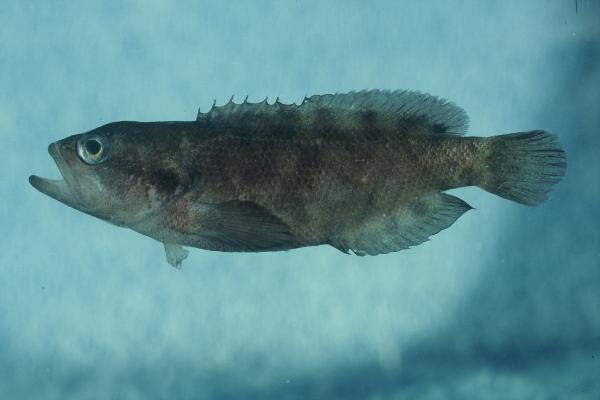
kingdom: Animalia
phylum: Chordata
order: Perciformes
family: Serranidae
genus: Pseudogramma
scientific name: Pseudogramma polyacantha
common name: Bold-spot soapfish
